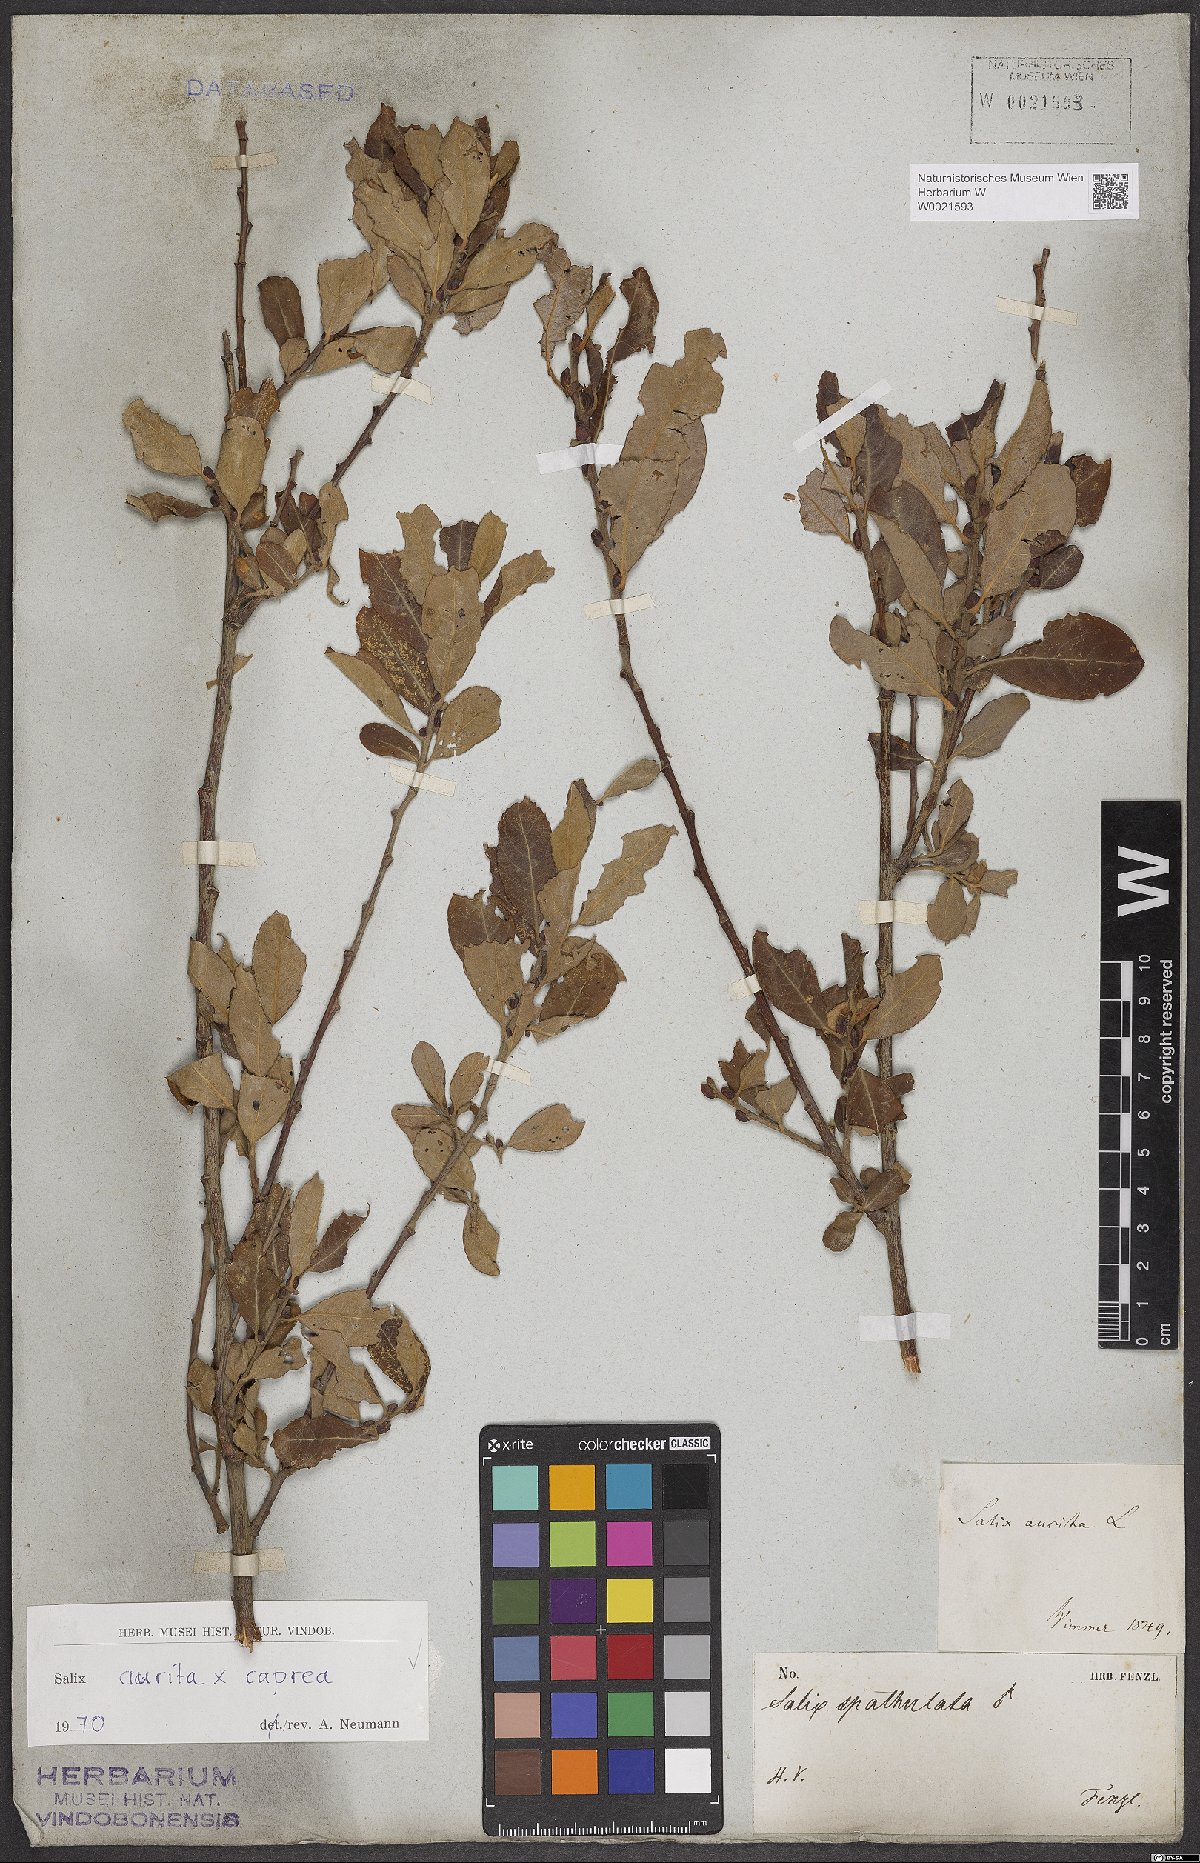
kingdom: Plantae
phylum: Tracheophyta
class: Magnoliopsida
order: Malpighiales
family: Salicaceae
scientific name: Salicaceae
